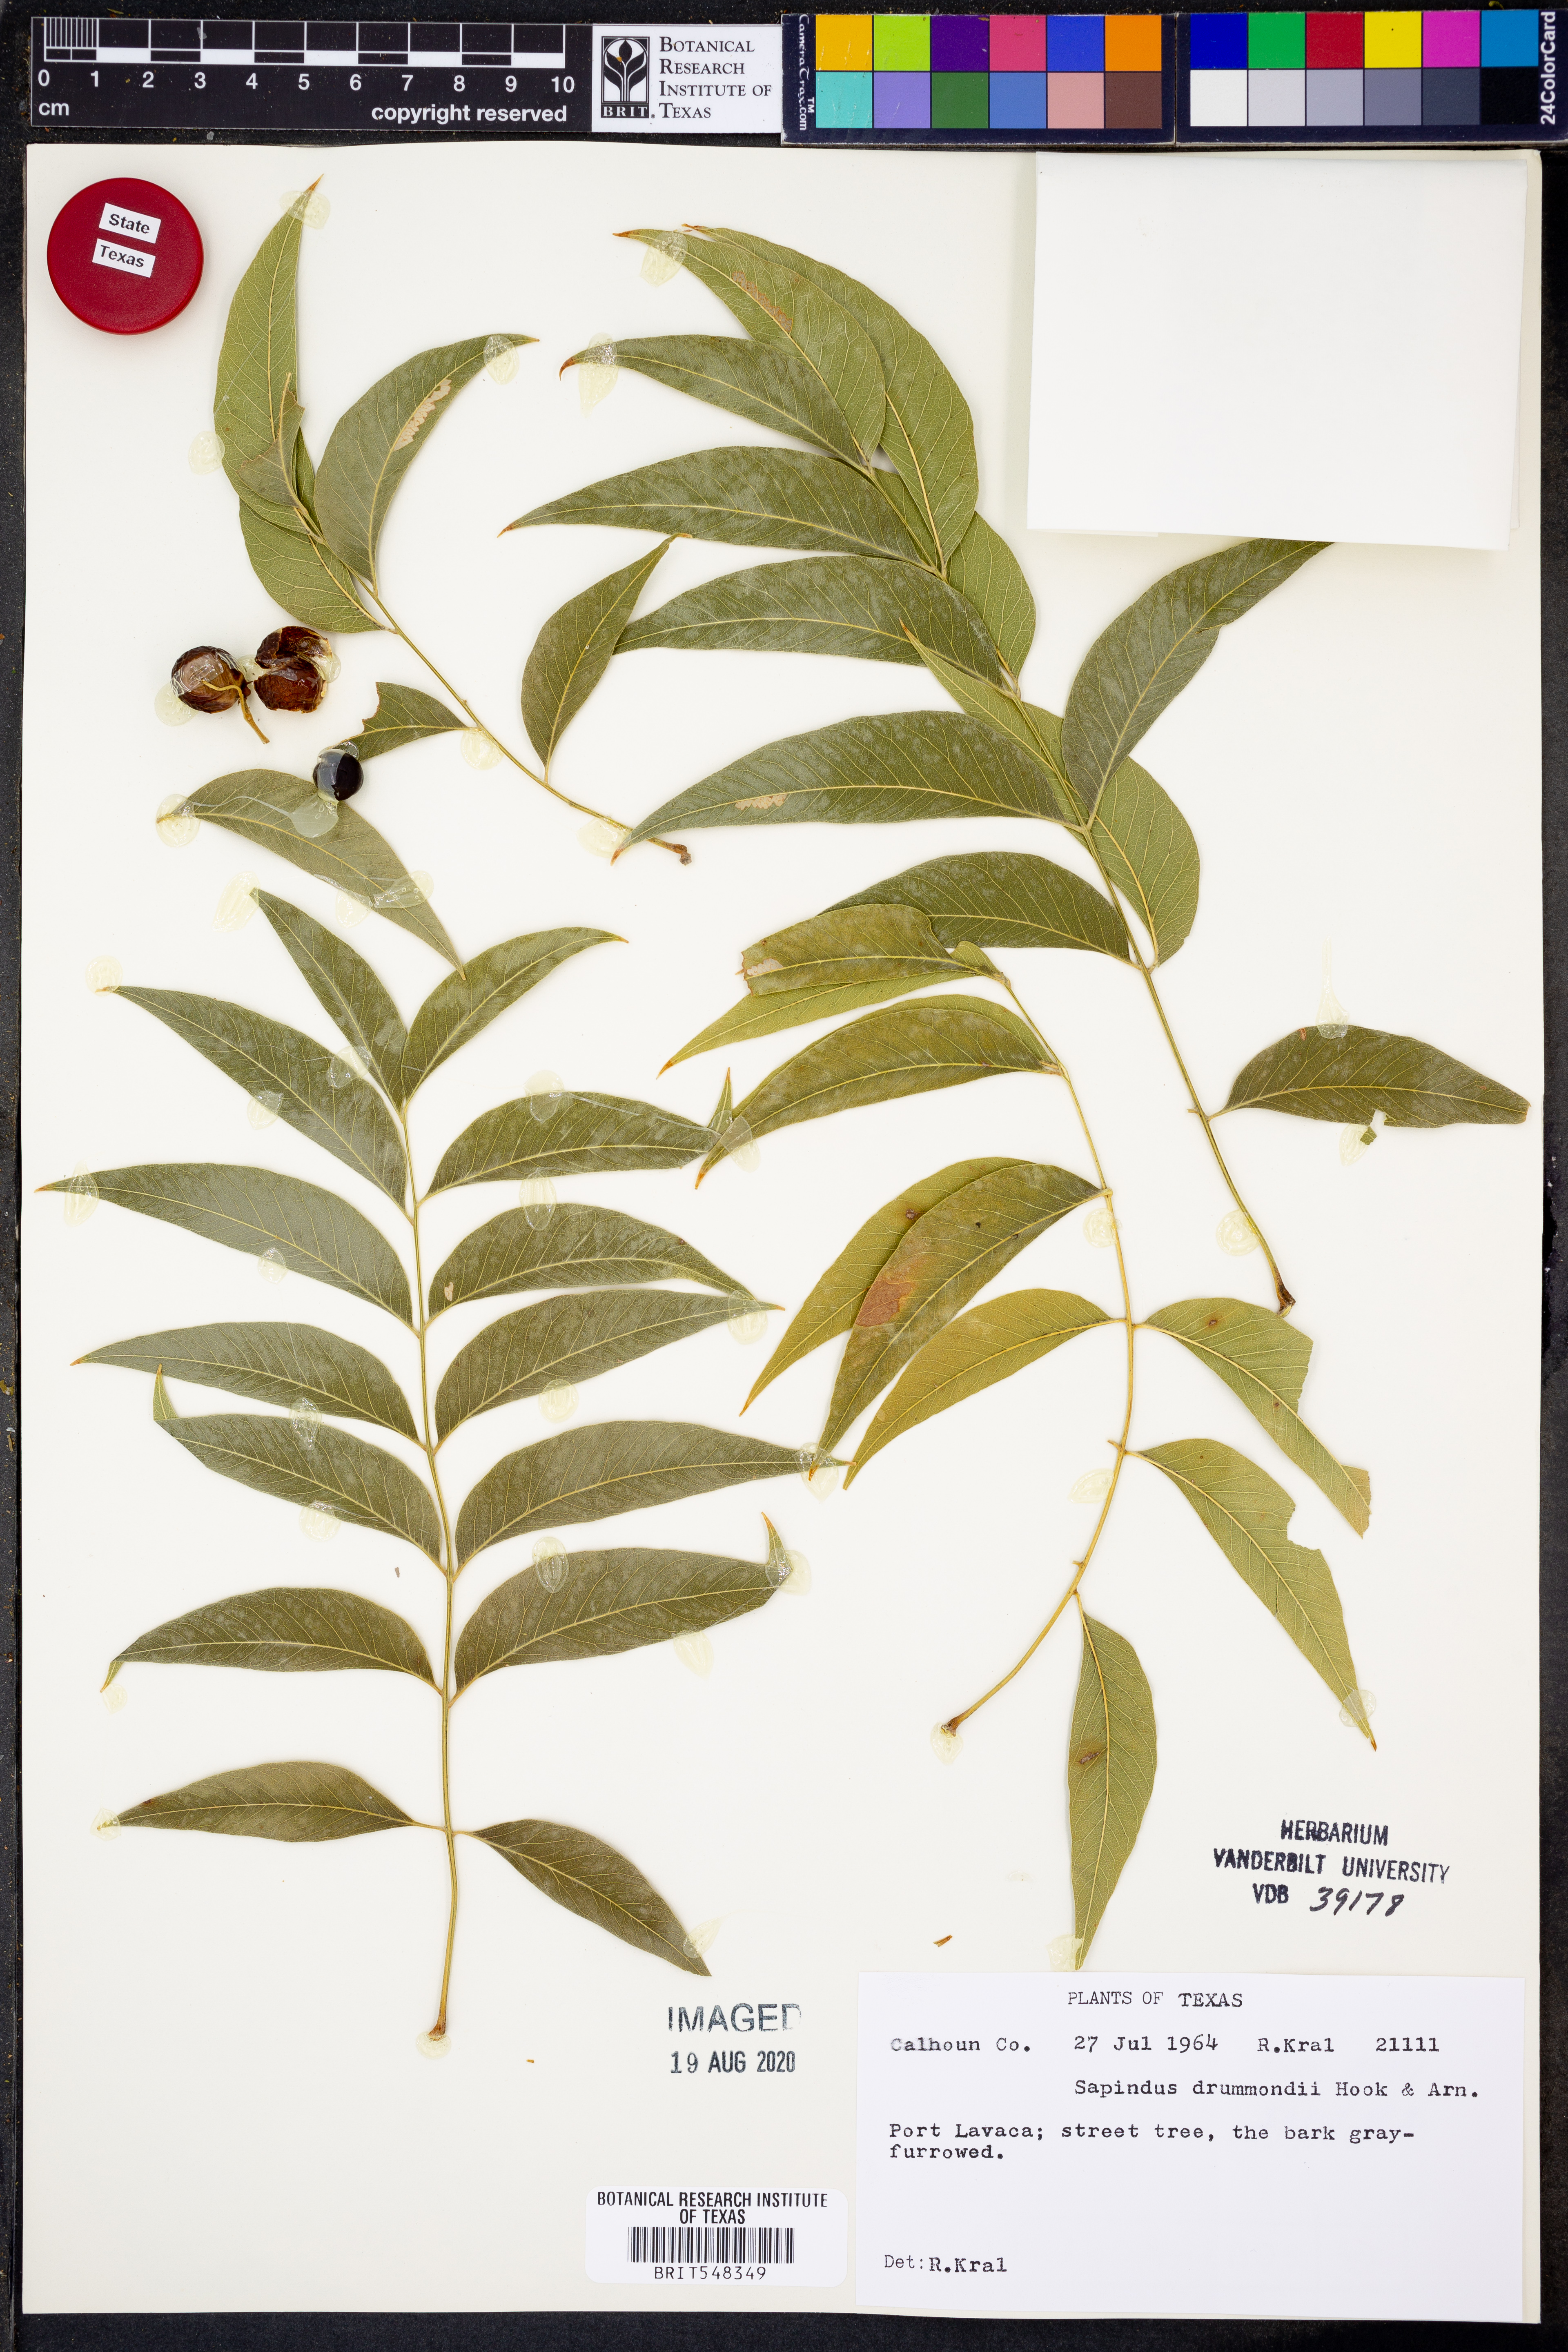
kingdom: Plantae
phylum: Tracheophyta
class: Magnoliopsida
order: Sapindales
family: Sapindaceae
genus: Sapindus
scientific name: Sapindus drummondii
